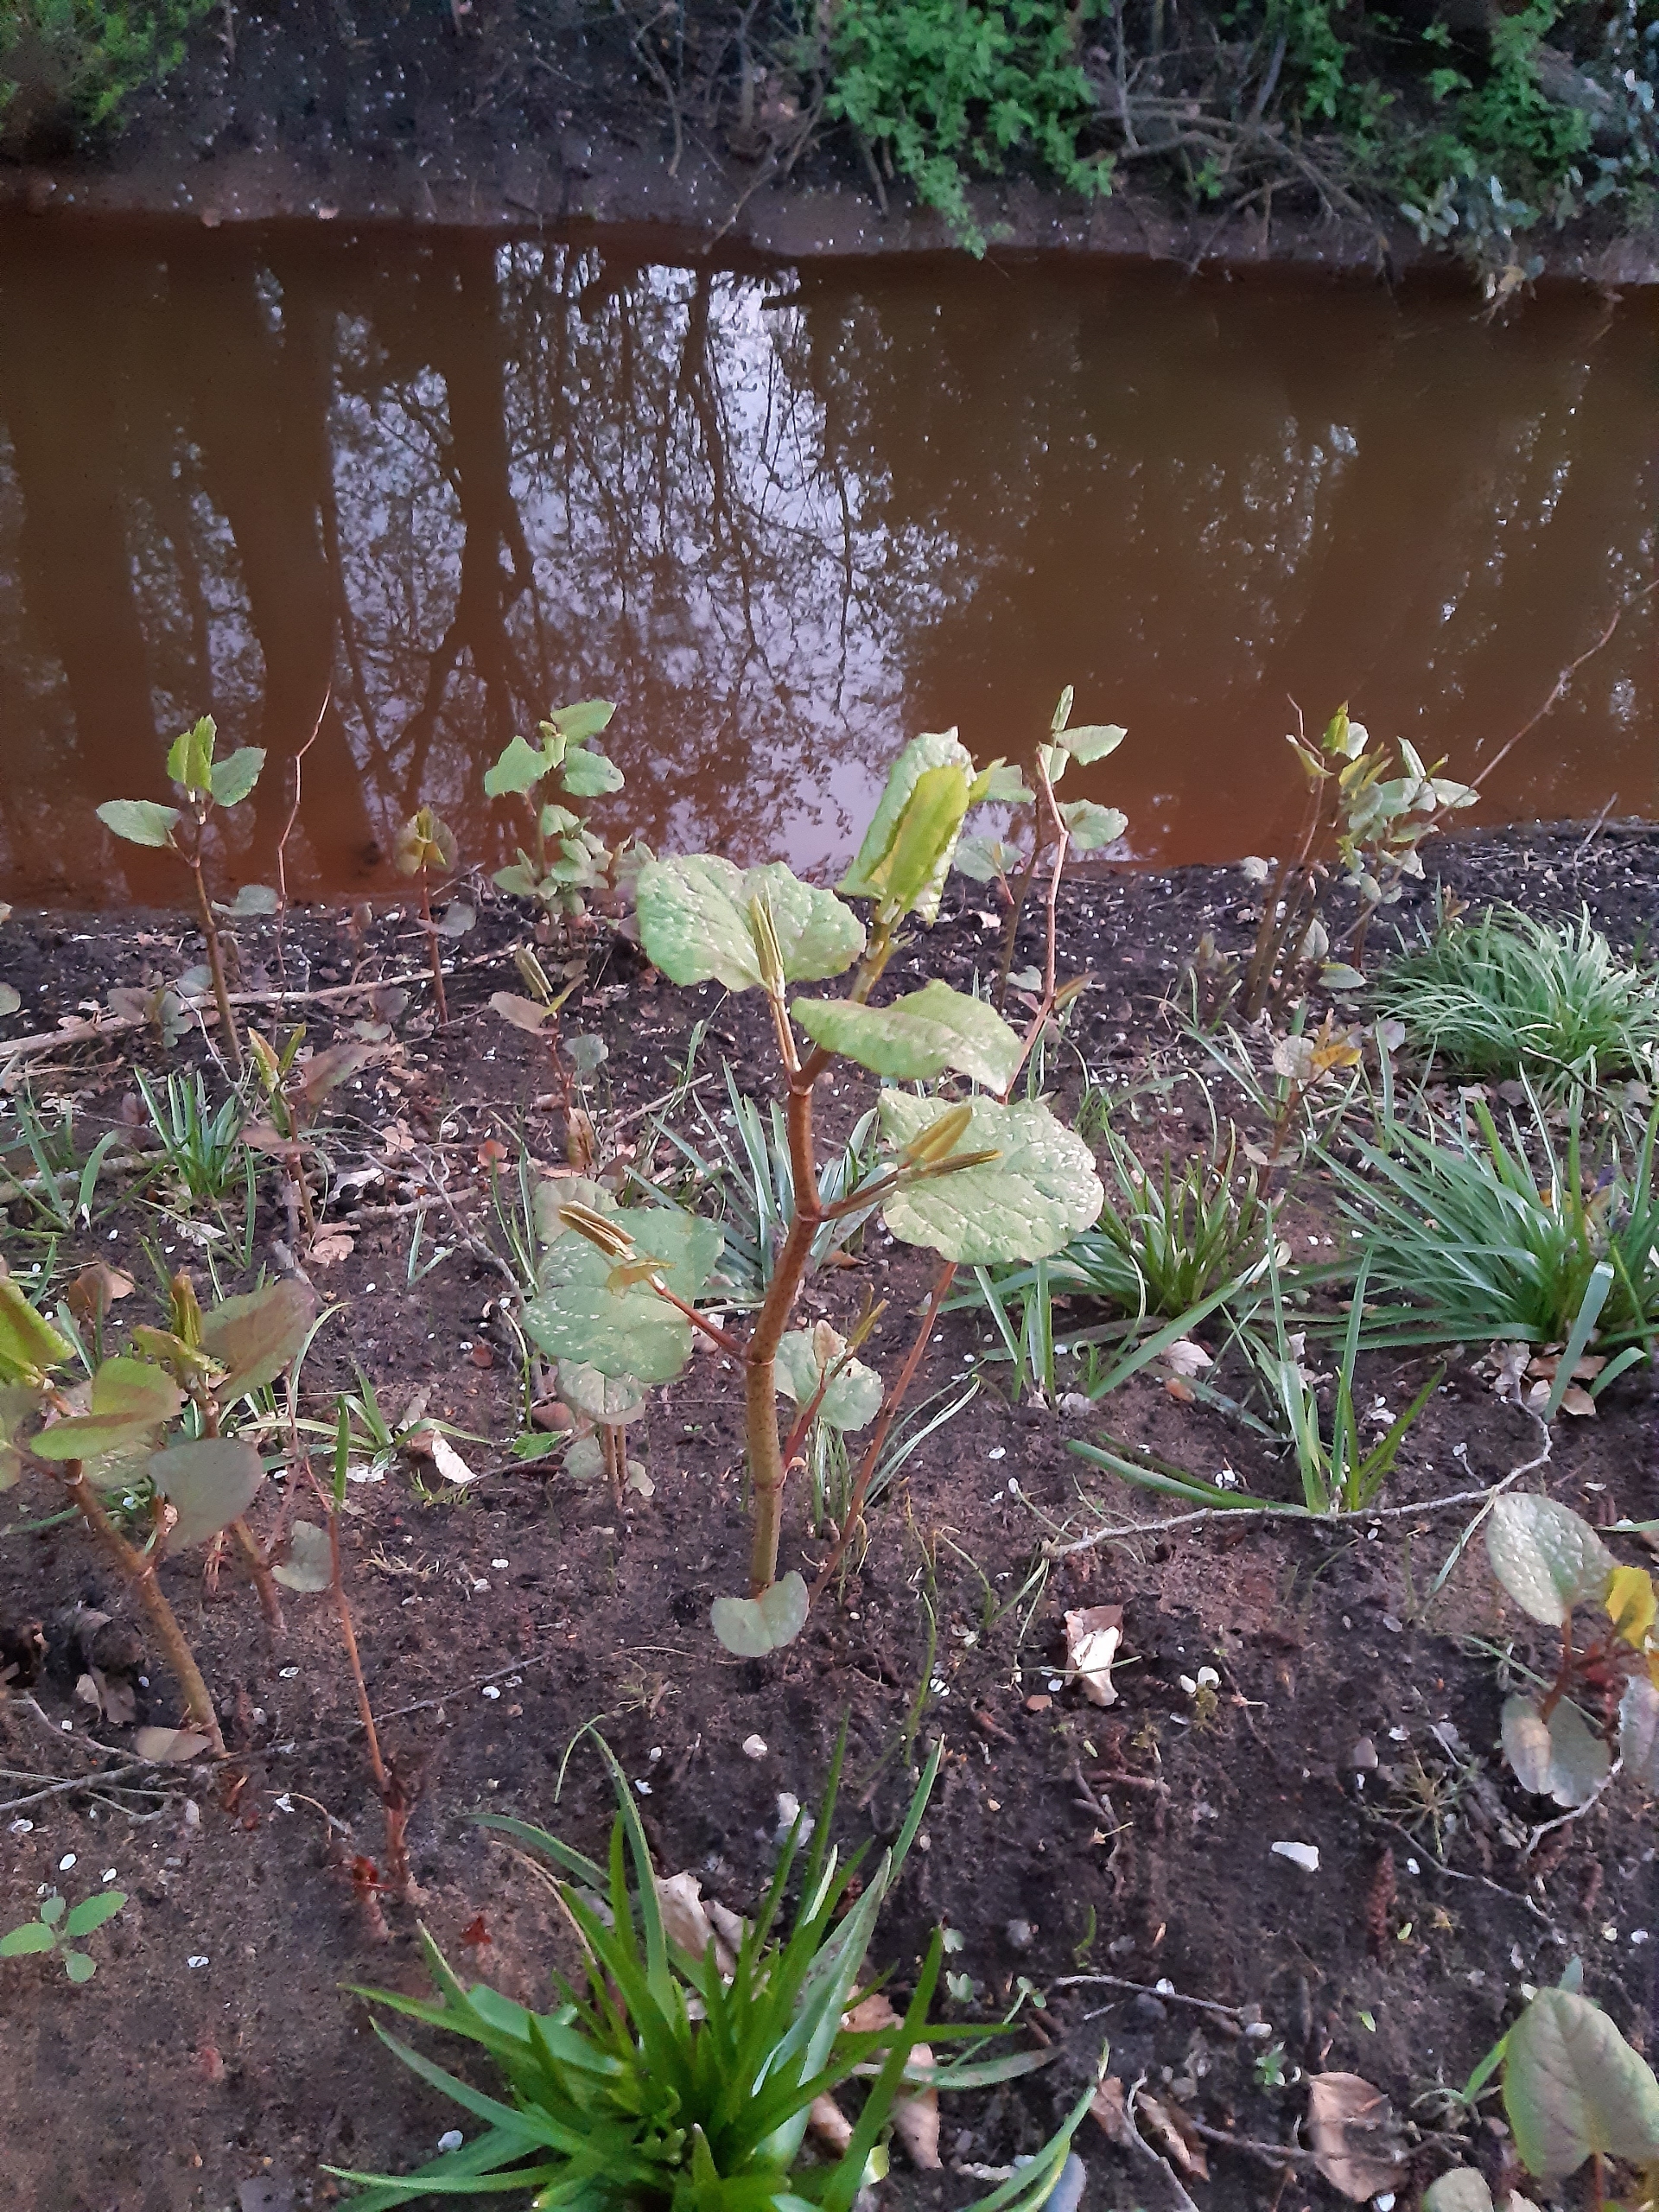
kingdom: Plantae
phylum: Tracheophyta
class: Magnoliopsida
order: Caryophyllales
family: Polygonaceae
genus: Reynoutria
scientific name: Reynoutria japonica
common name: Japan-pileurt
